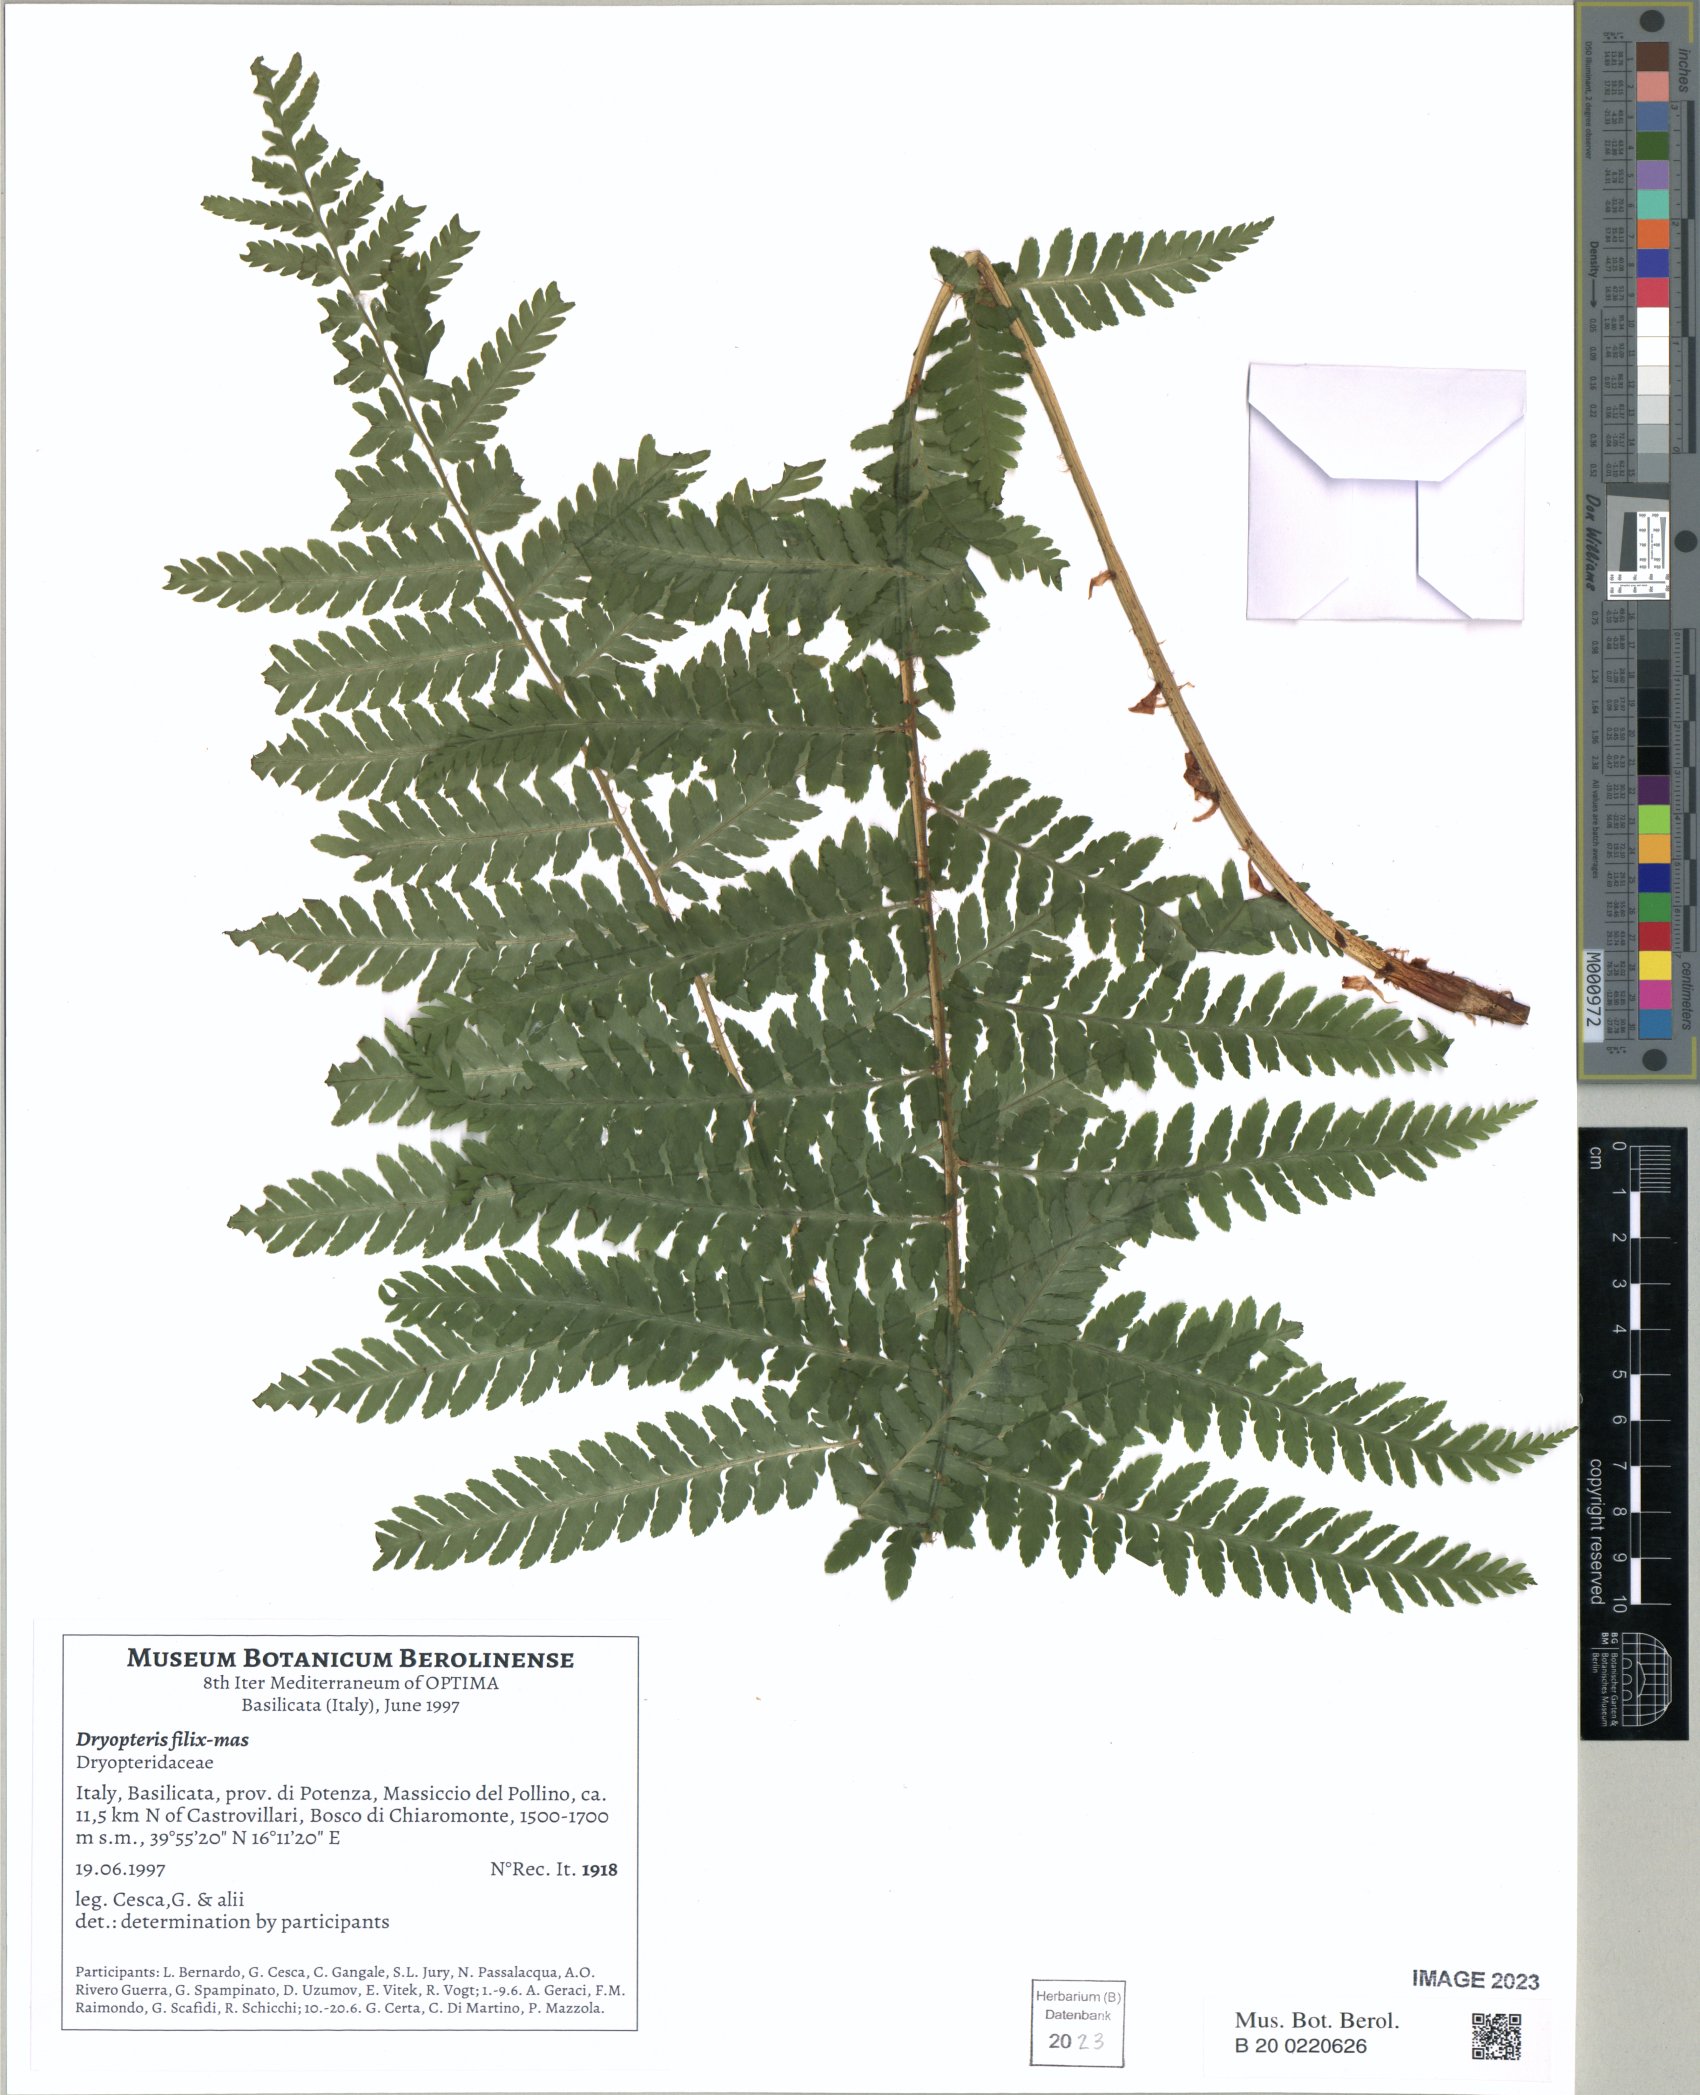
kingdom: Plantae
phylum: Tracheophyta
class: Polypodiopsida
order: Polypodiales
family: Dryopteridaceae
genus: Dryopteris
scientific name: Dryopteris filix-mas
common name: Male fern
